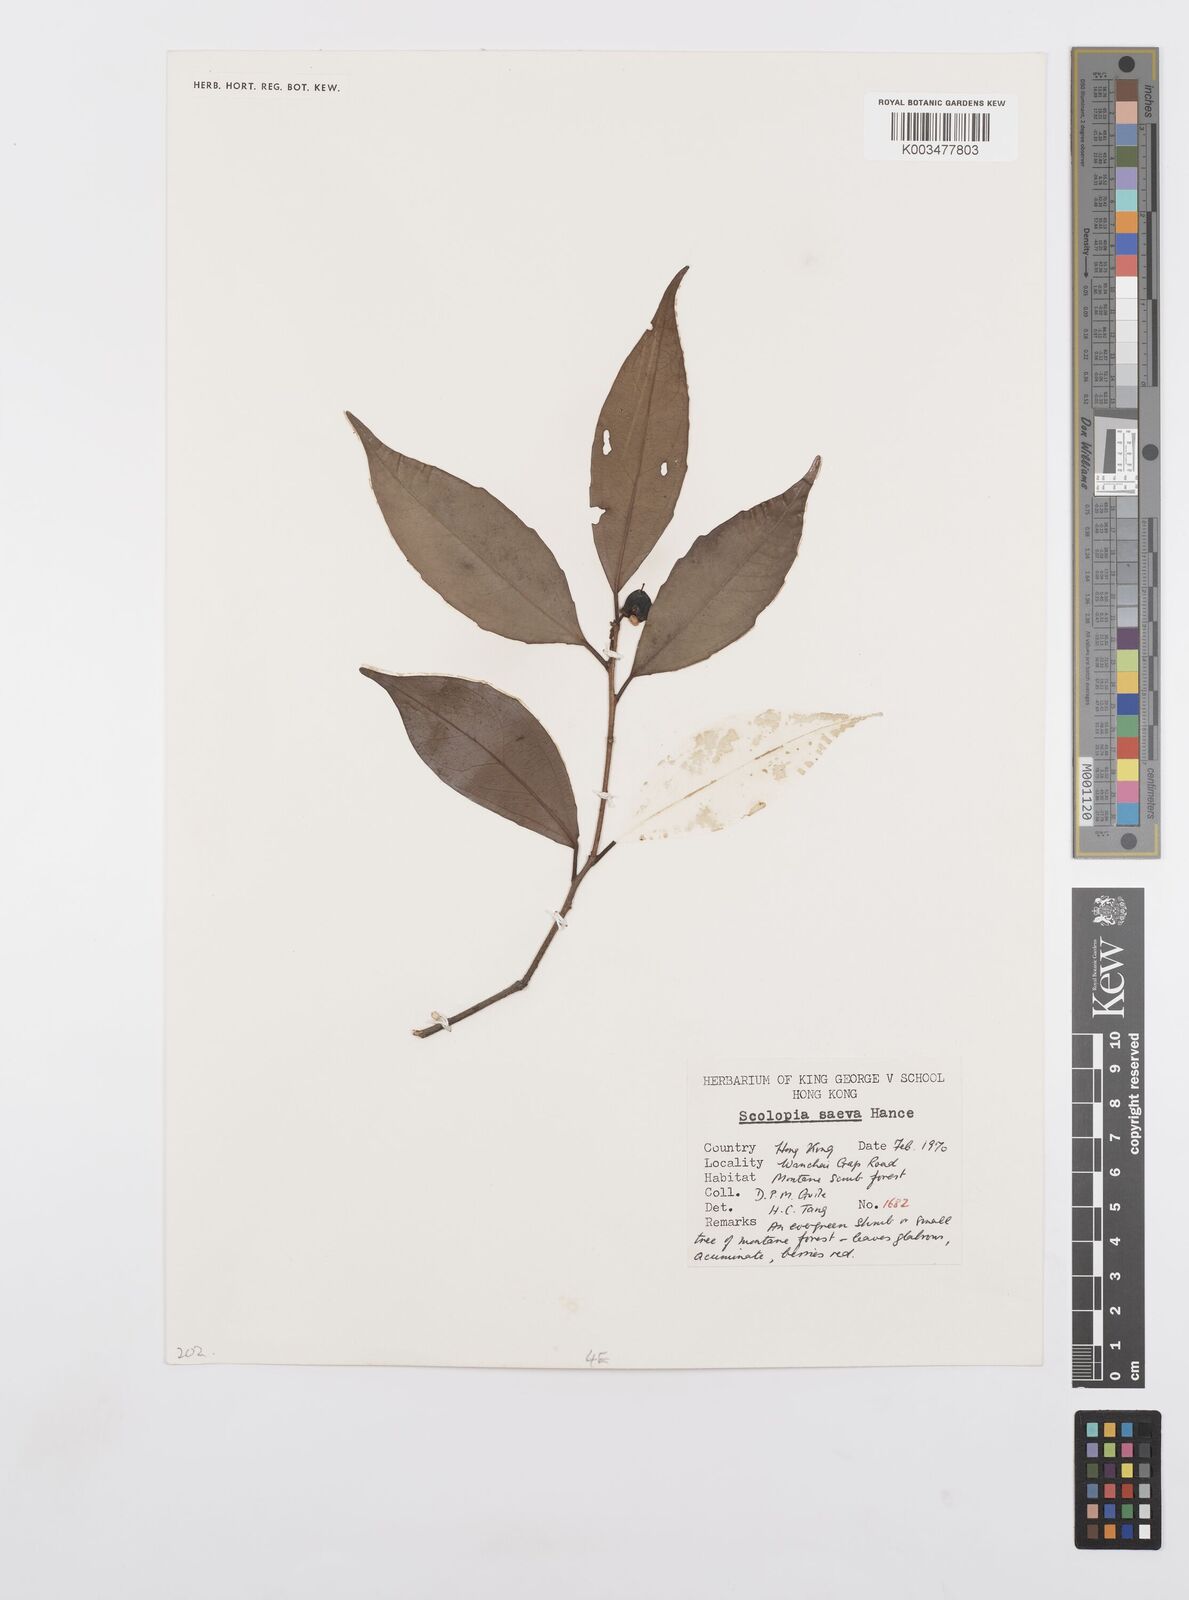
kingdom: Plantae
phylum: Tracheophyta
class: Magnoliopsida
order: Malpighiales
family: Salicaceae
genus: Scolopia
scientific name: Scolopia saeva
